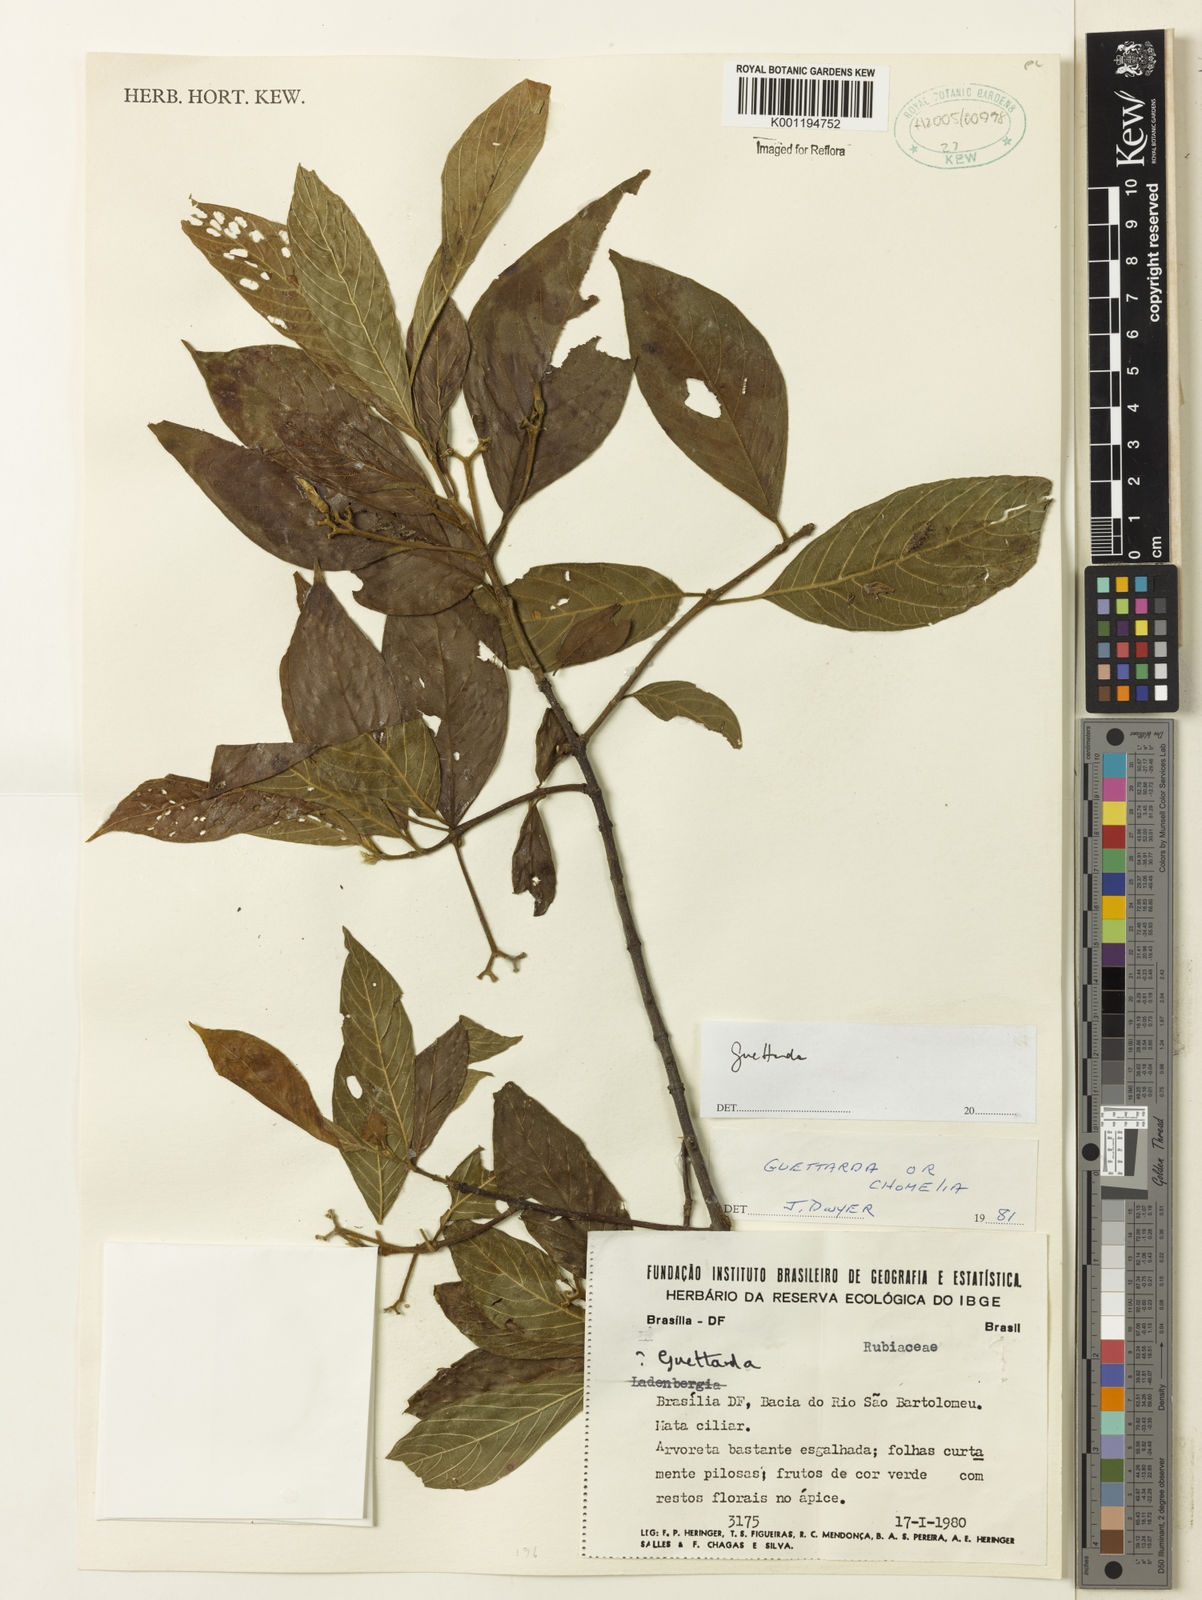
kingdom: Plantae
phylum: Tracheophyta
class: Magnoliopsida
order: Gentianales
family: Rubiaceae
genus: Guettarda
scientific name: Guettarda
